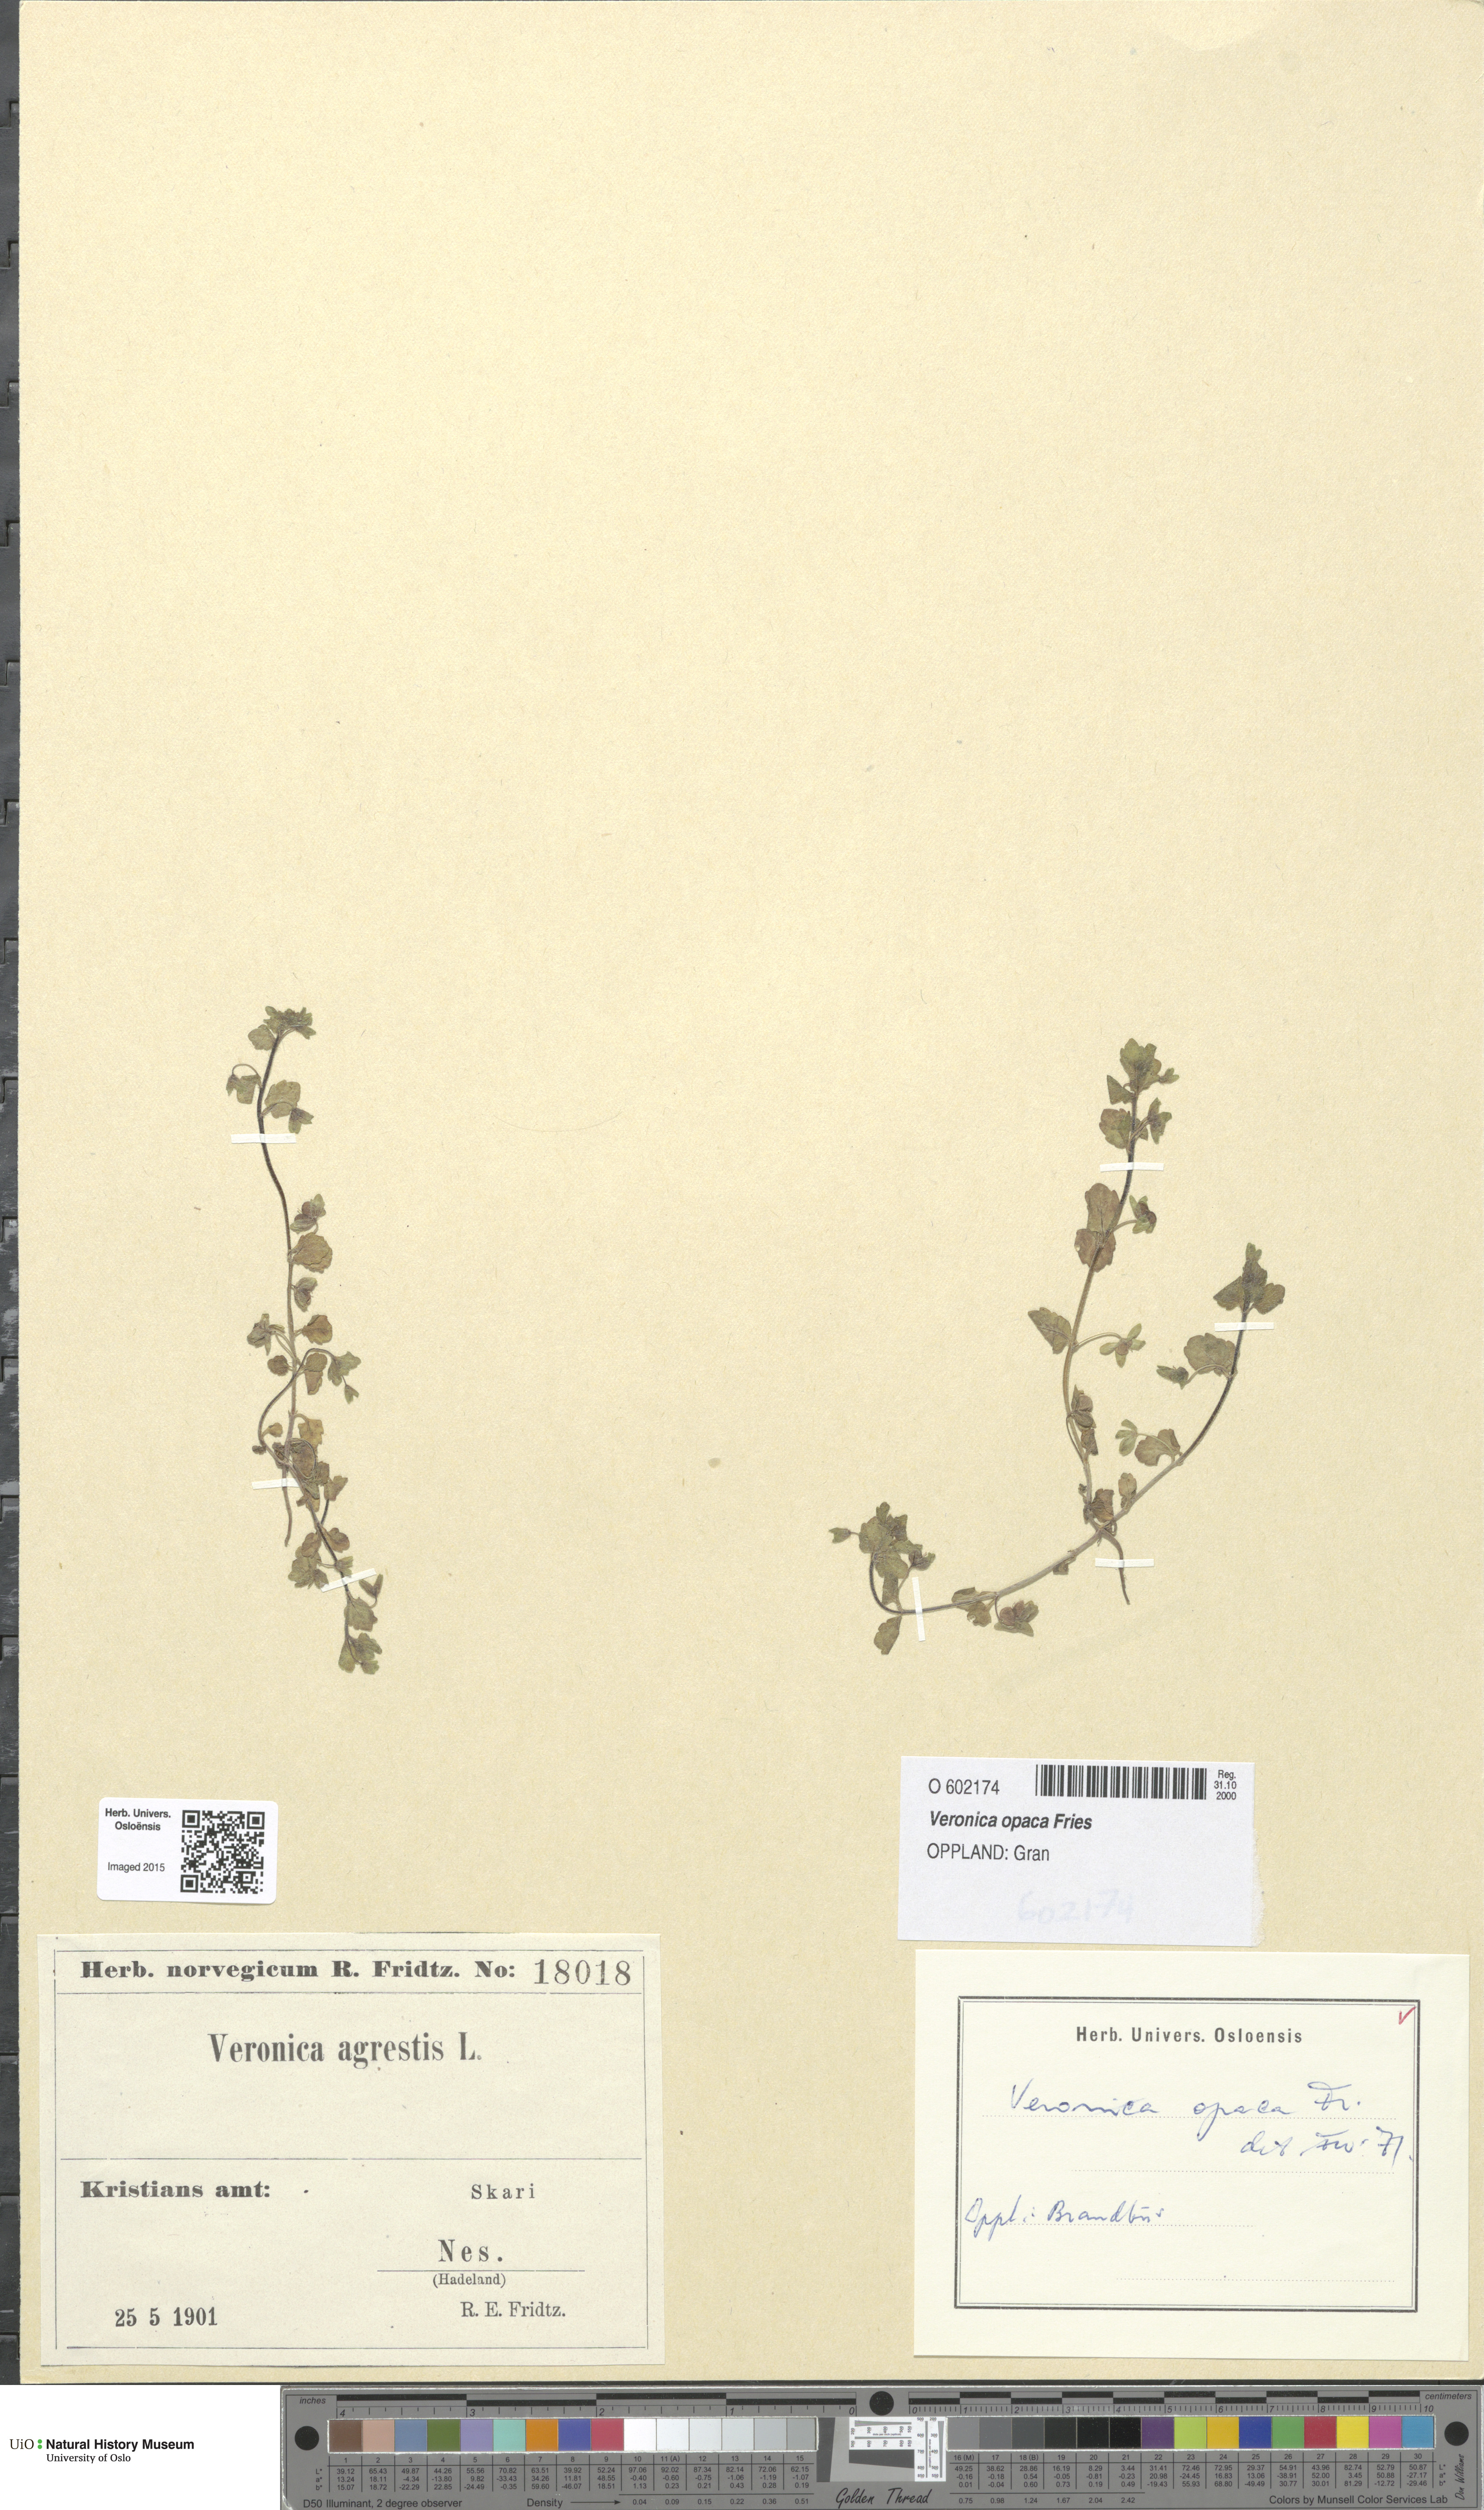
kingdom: Plantae
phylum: Tracheophyta
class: Magnoliopsida
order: Lamiales
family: Plantaginaceae
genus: Veronica
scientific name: Veronica opaca
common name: Dark speedwell
